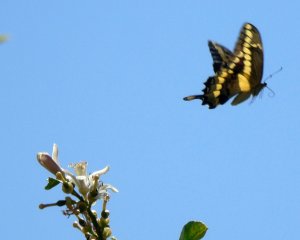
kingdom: Animalia
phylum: Arthropoda
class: Insecta
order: Lepidoptera
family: Papilionidae
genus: Papilio
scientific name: Papilio rumiko
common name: Western Giant Swallowtail
